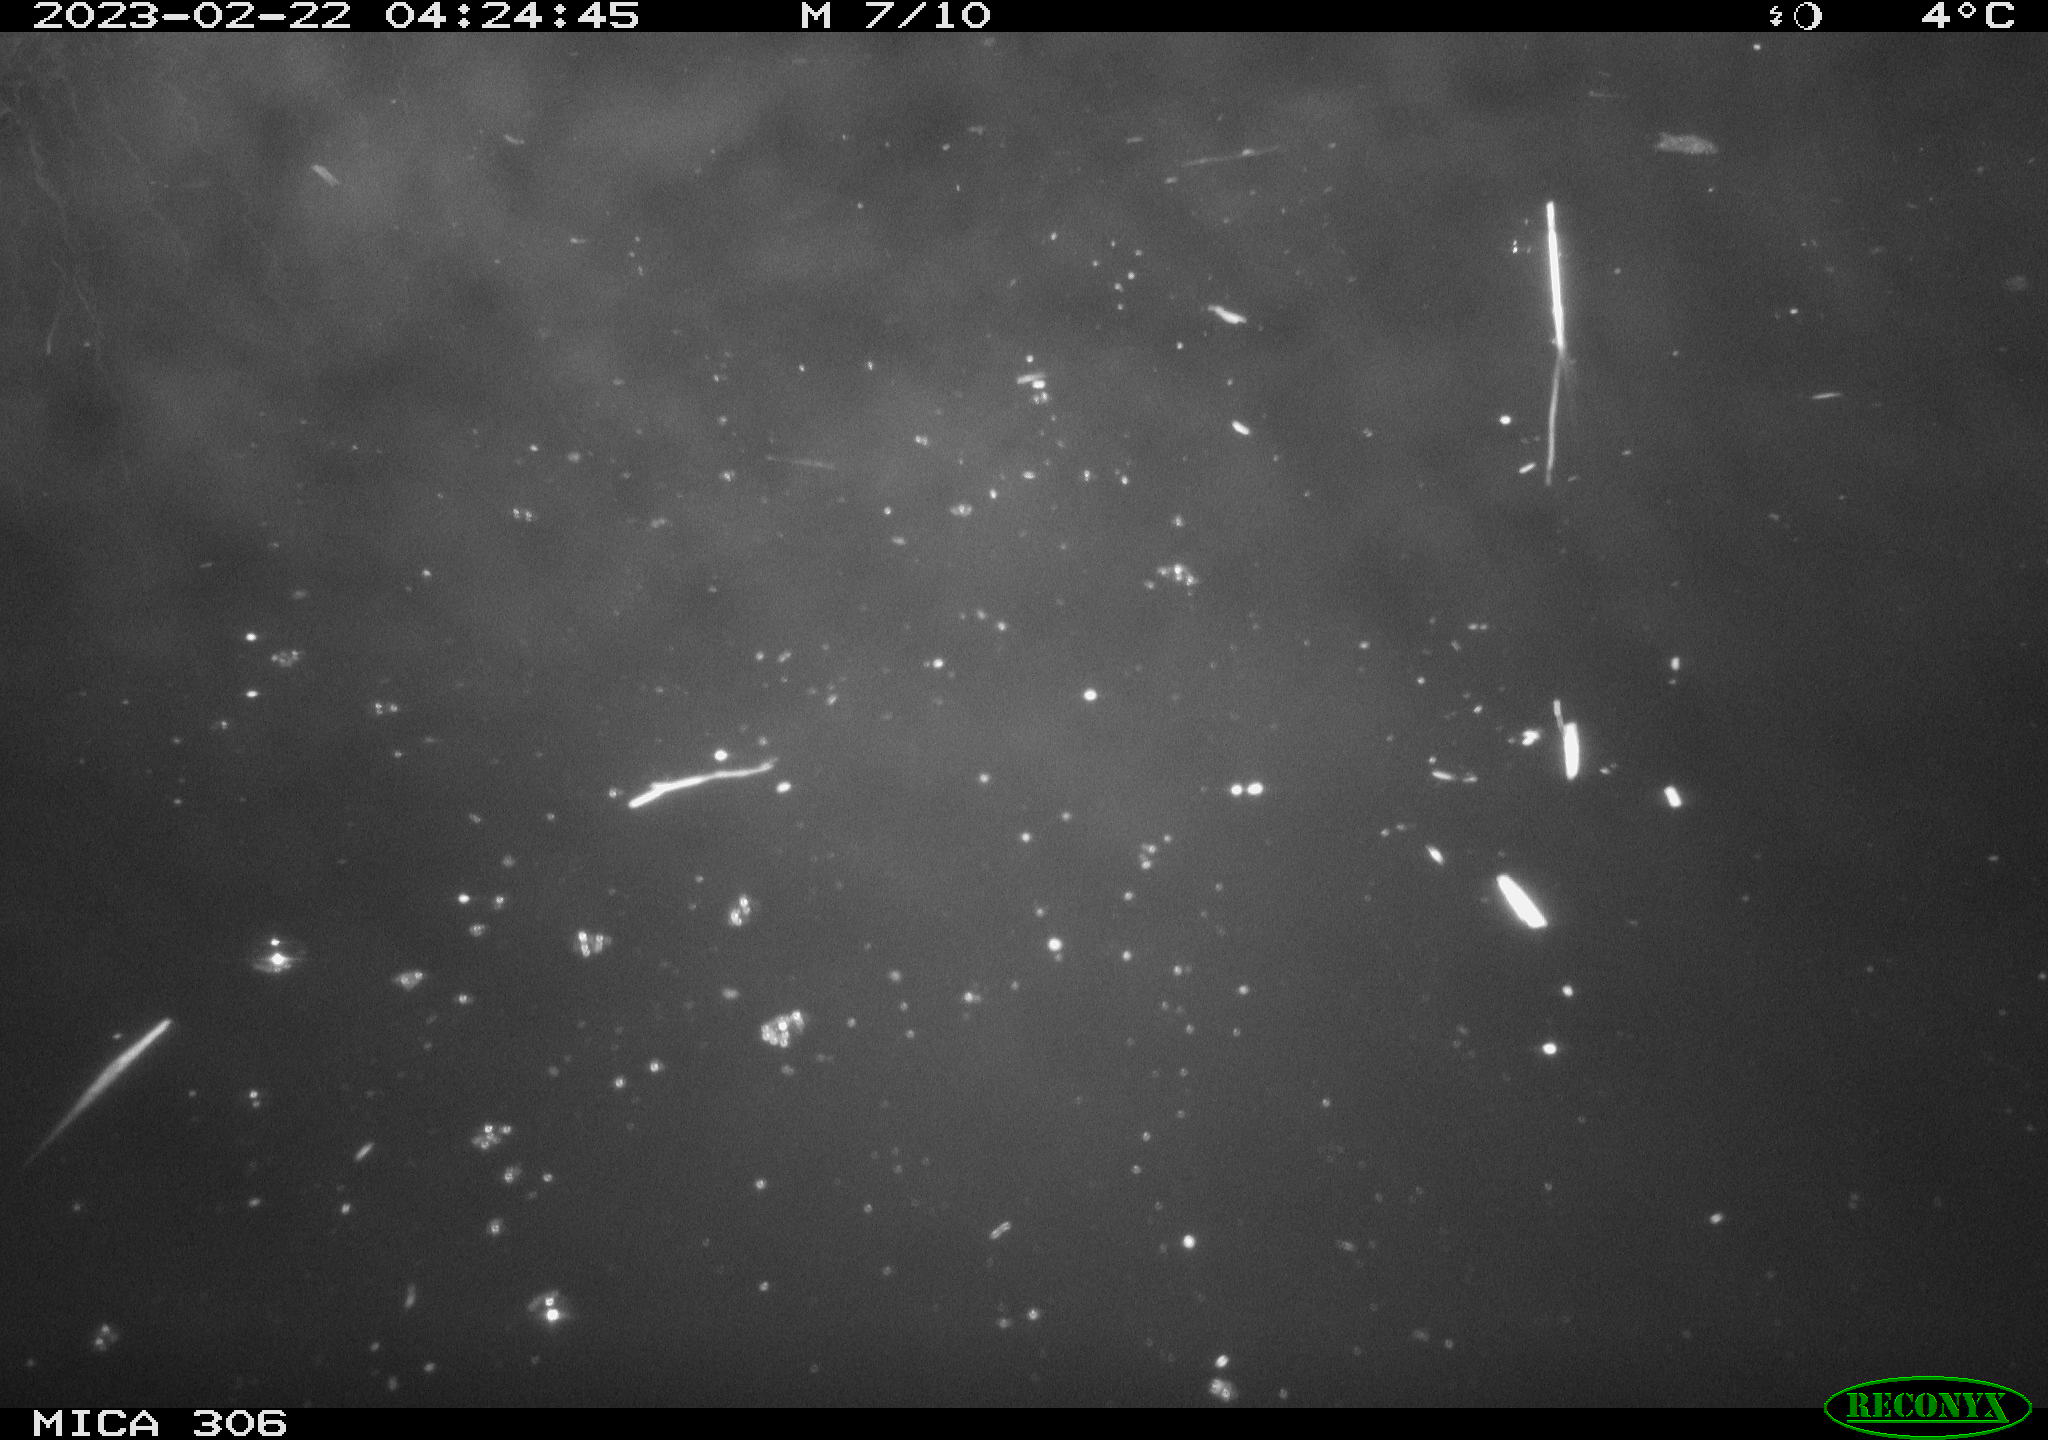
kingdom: Animalia
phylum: Chordata
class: Mammalia
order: Rodentia
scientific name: Rodentia
